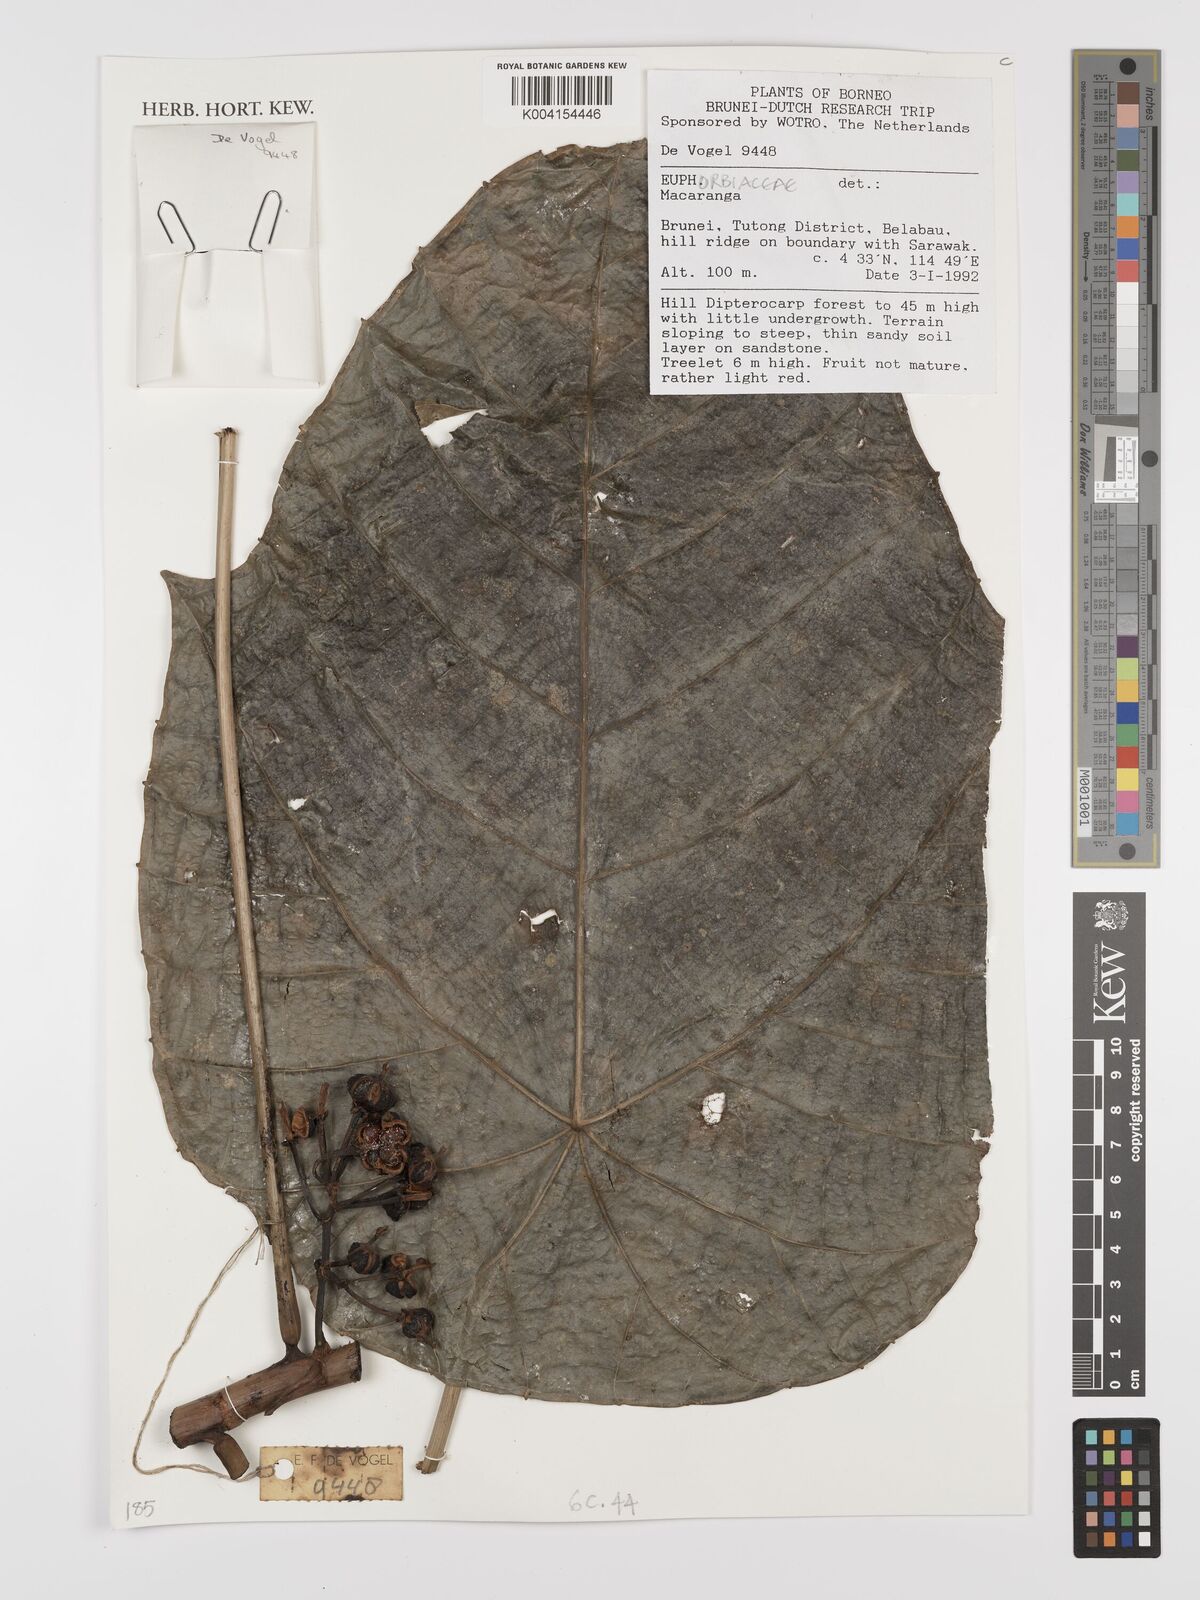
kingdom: Plantae
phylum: Tracheophyta
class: Magnoliopsida
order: Malpighiales
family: Euphorbiaceae
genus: Macaranga
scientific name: Macaranga
